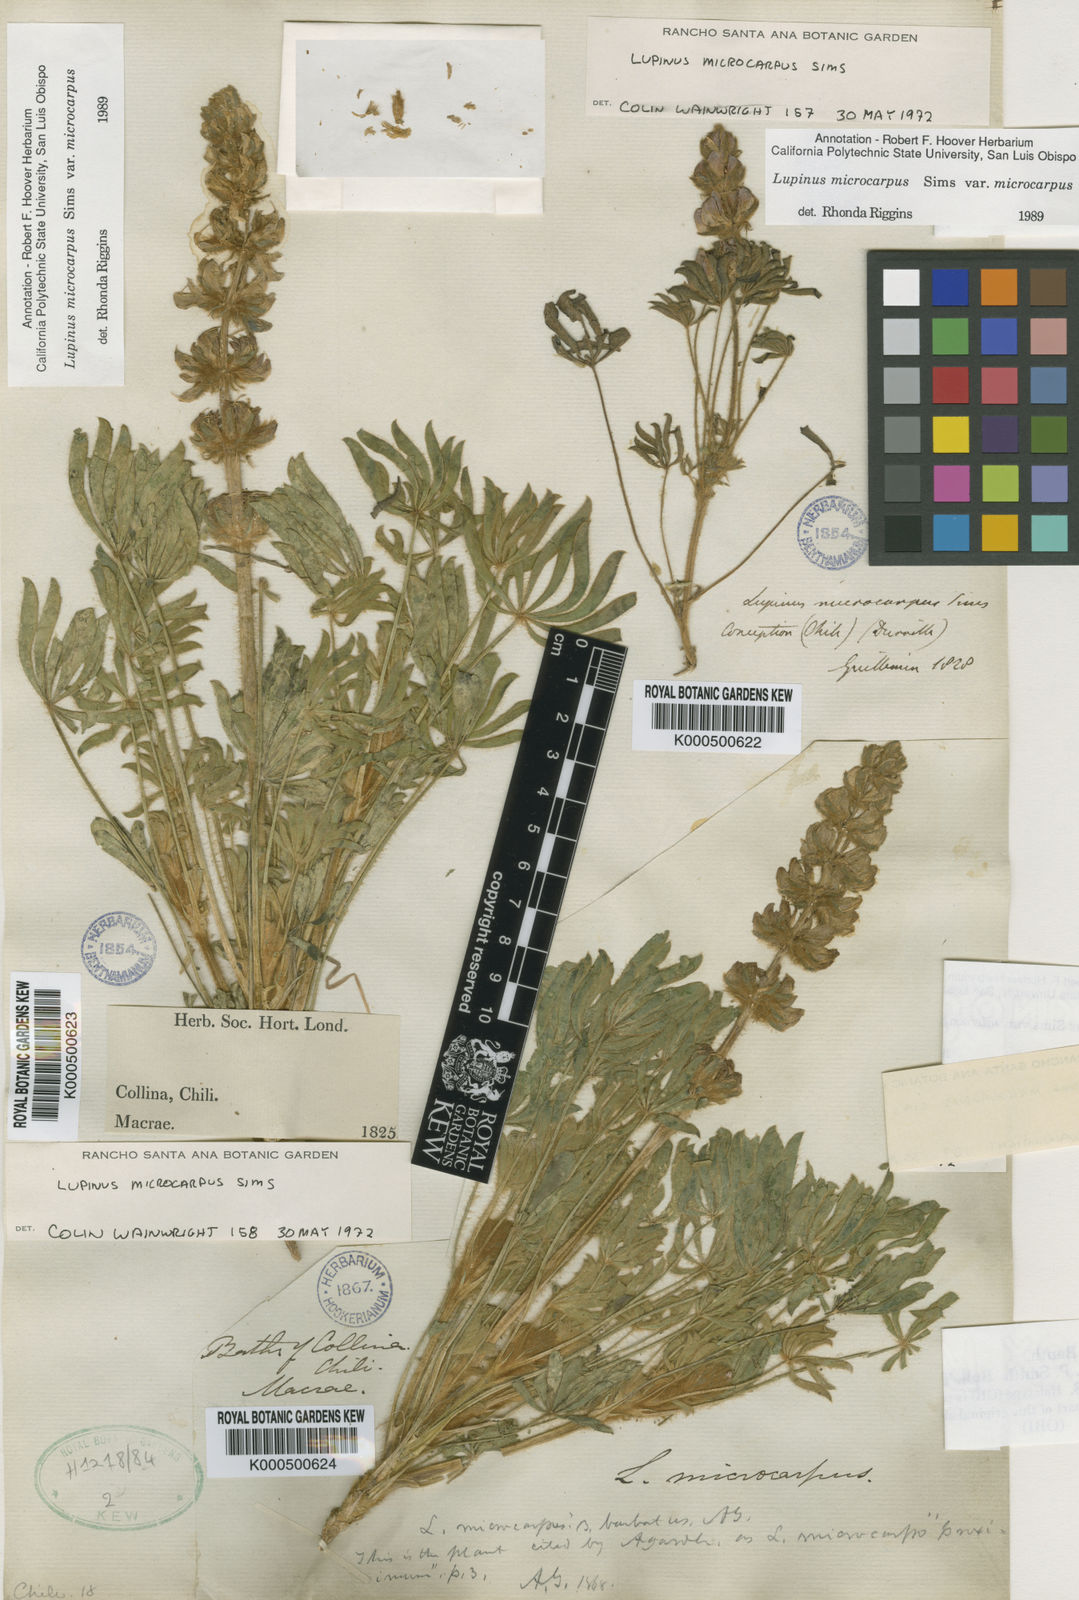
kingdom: Plantae
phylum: Tracheophyta
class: Magnoliopsida
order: Fabales
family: Fabaceae
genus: Lupinus
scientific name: Lupinus microcarpus
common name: Chick lupine
